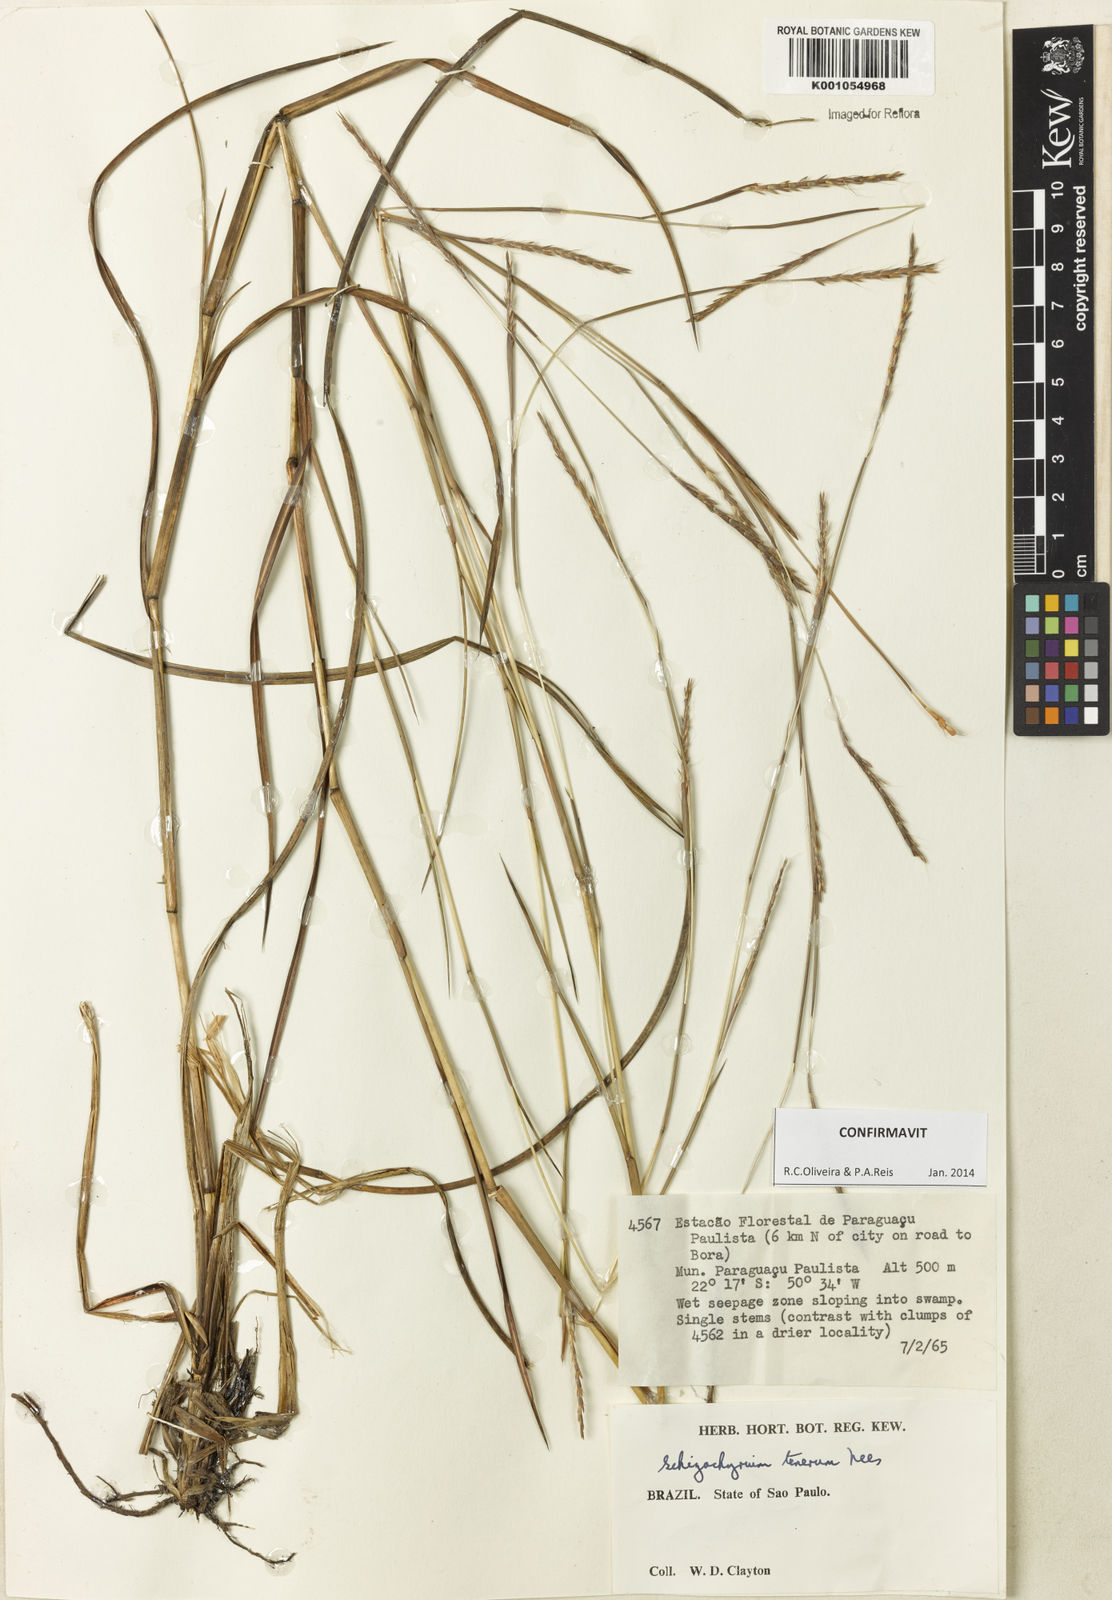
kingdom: Plantae
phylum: Tracheophyta
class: Liliopsida
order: Poales
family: Poaceae
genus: Schizachyrium
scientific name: Schizachyrium sanguineum
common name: Crimson bluestem
